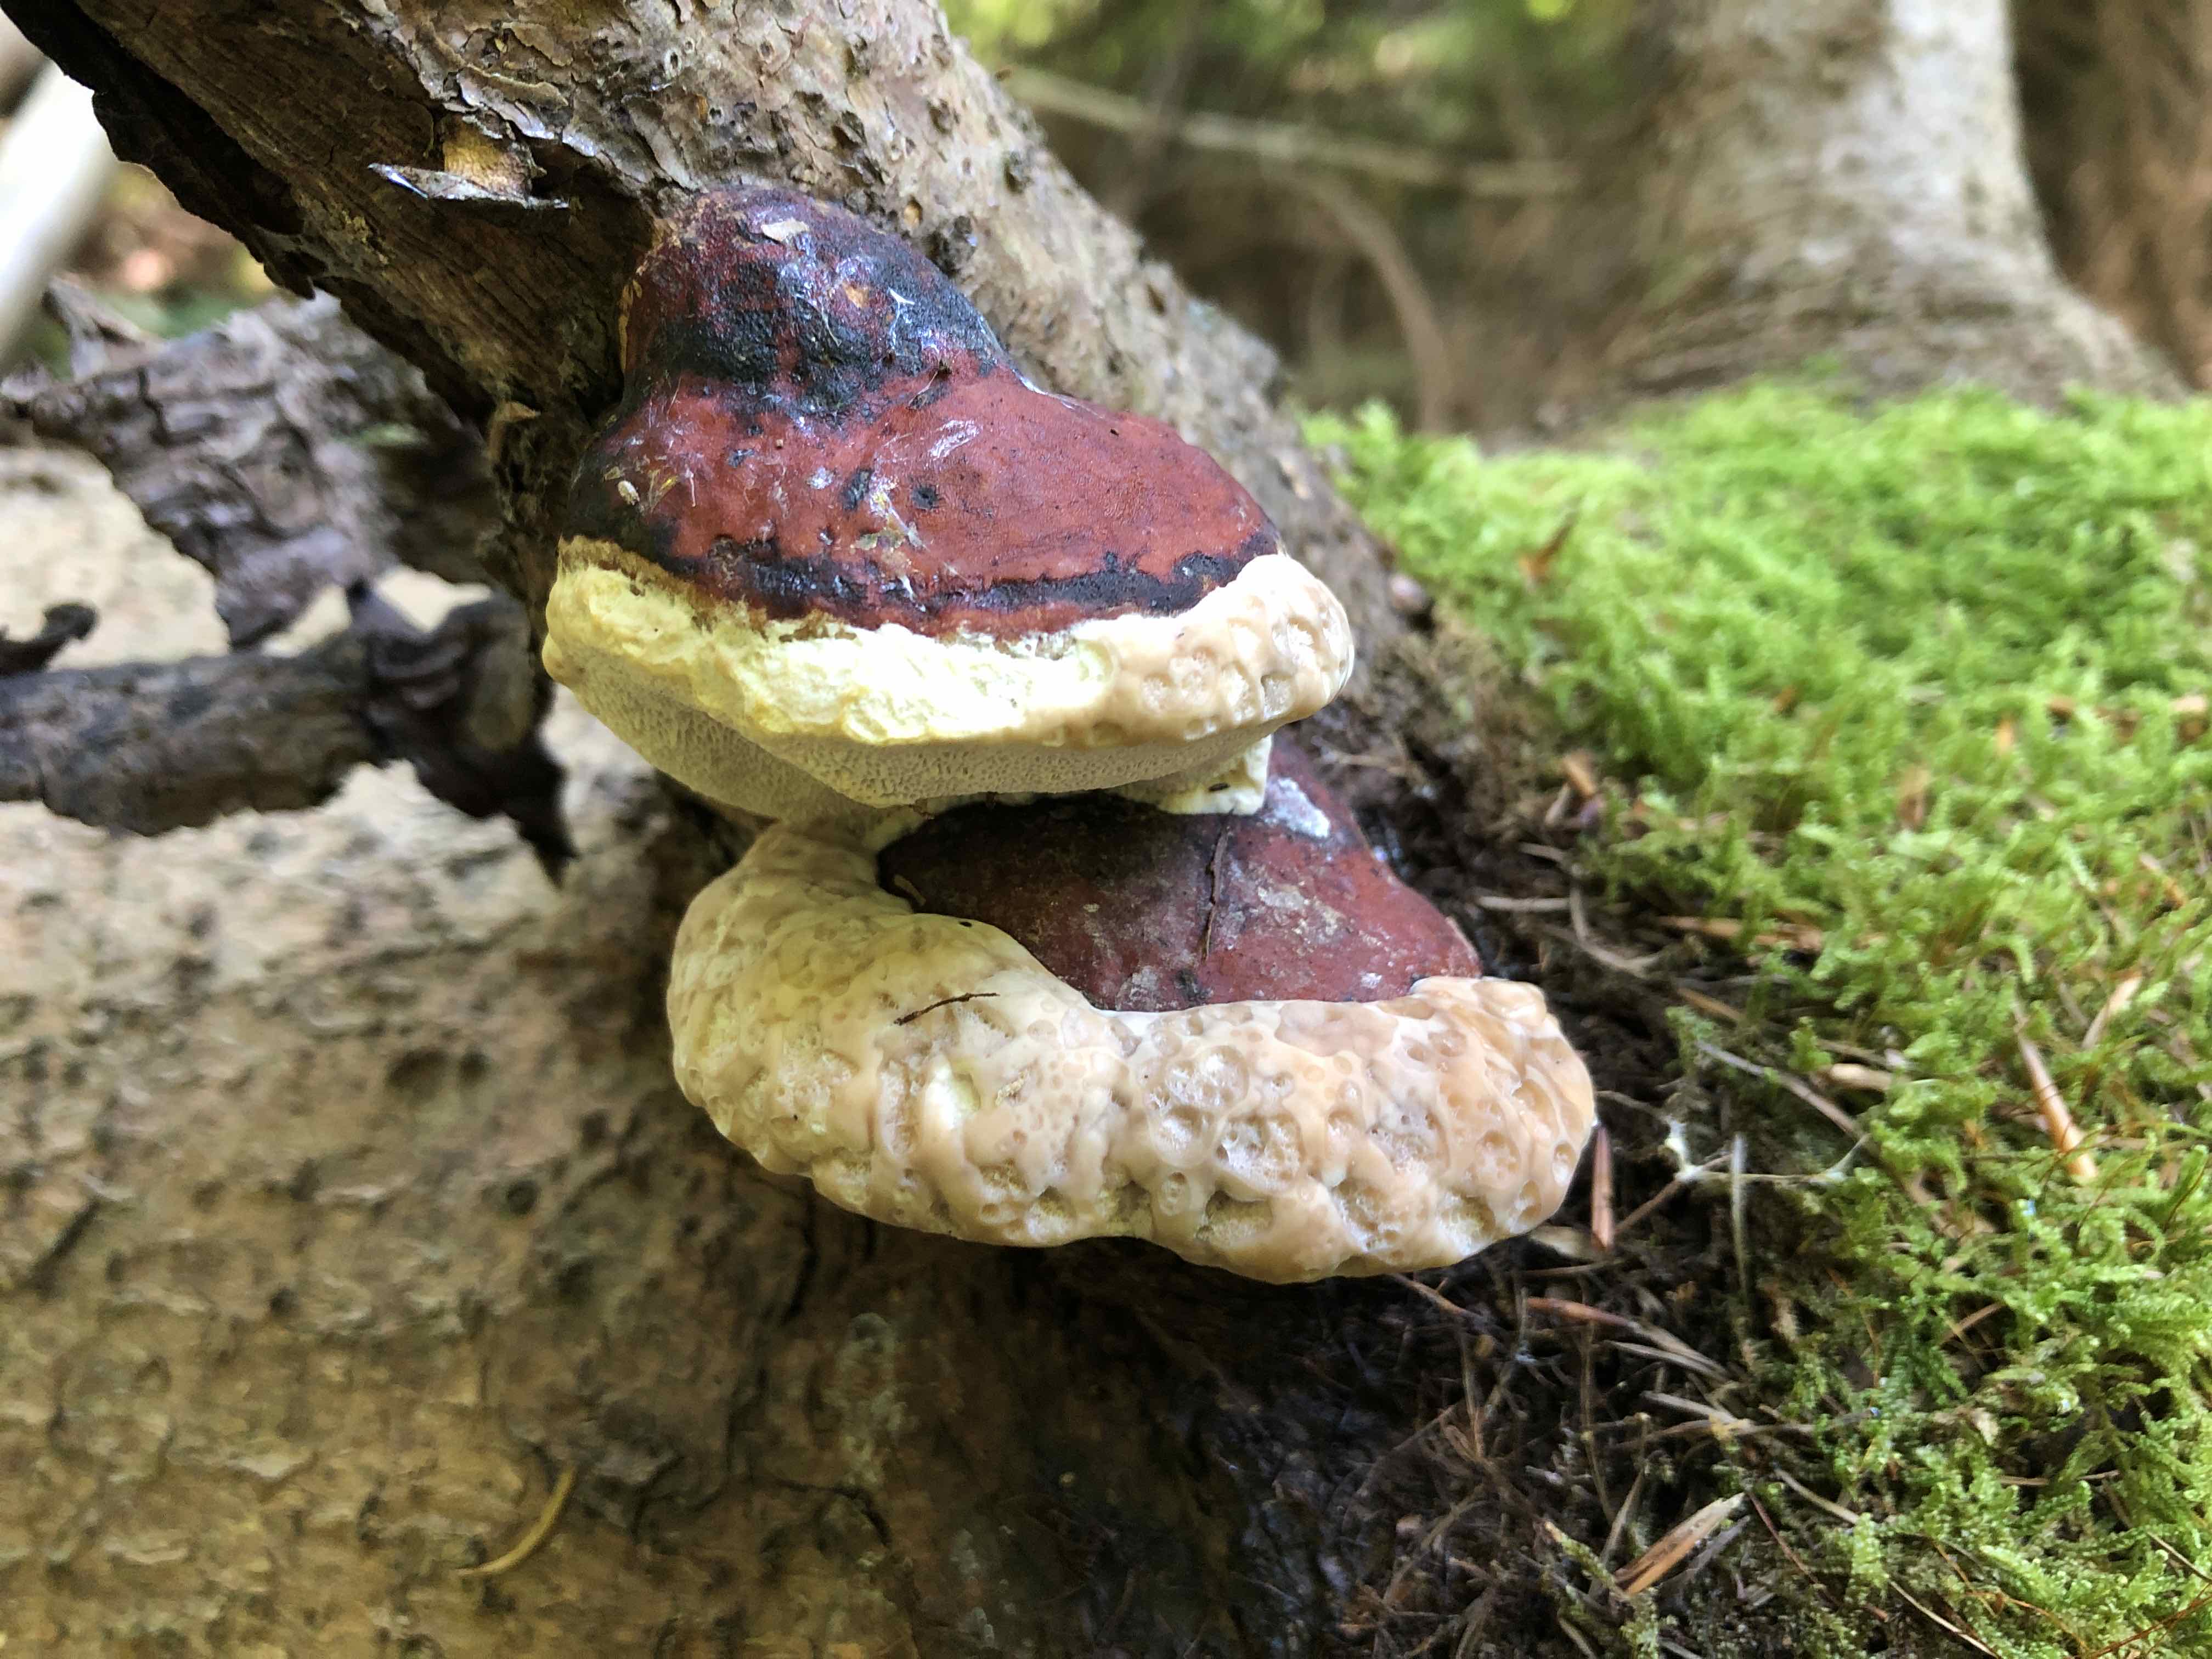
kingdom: Fungi
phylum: Basidiomycota
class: Agaricomycetes
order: Polyporales
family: Fomitopsidaceae
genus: Fomitopsis
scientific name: Fomitopsis pinicola
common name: randbæltet hovporesvamp
